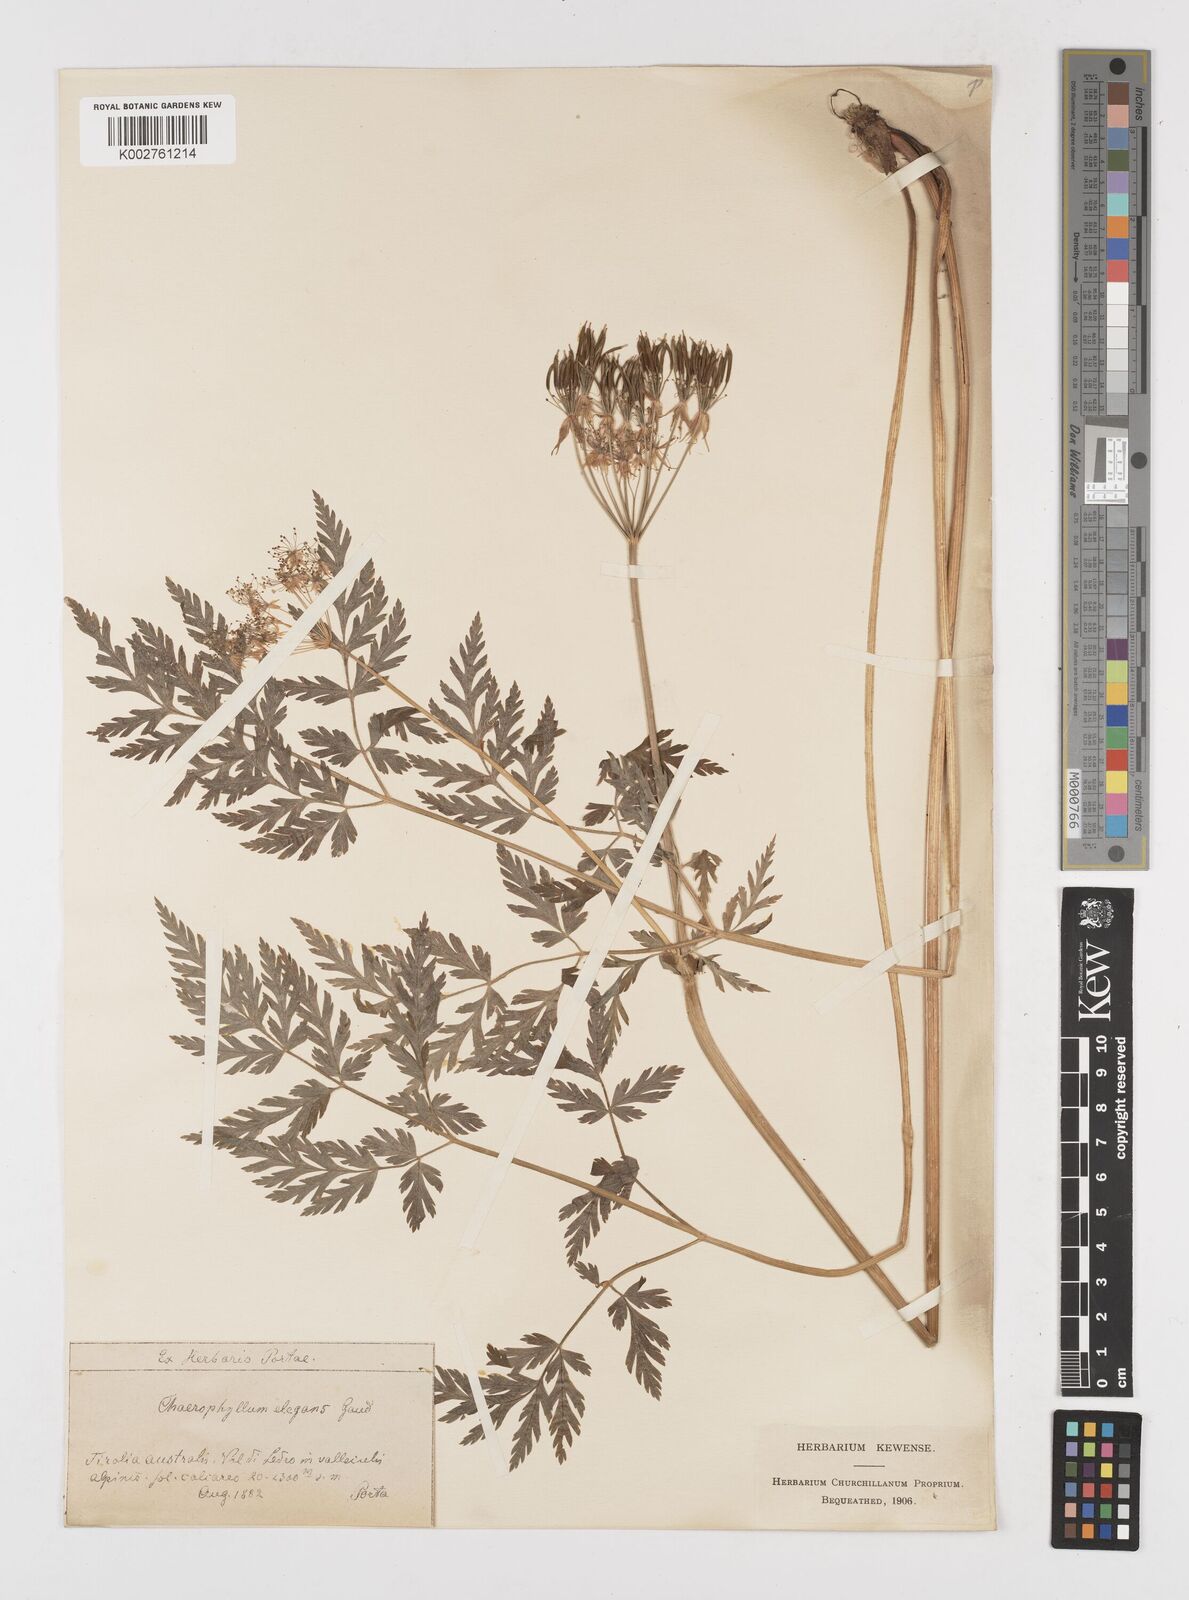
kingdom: Plantae
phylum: Tracheophyta
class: Magnoliopsida
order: Apiales
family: Apiaceae
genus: Chaerophyllum
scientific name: Chaerophyllum elegans
